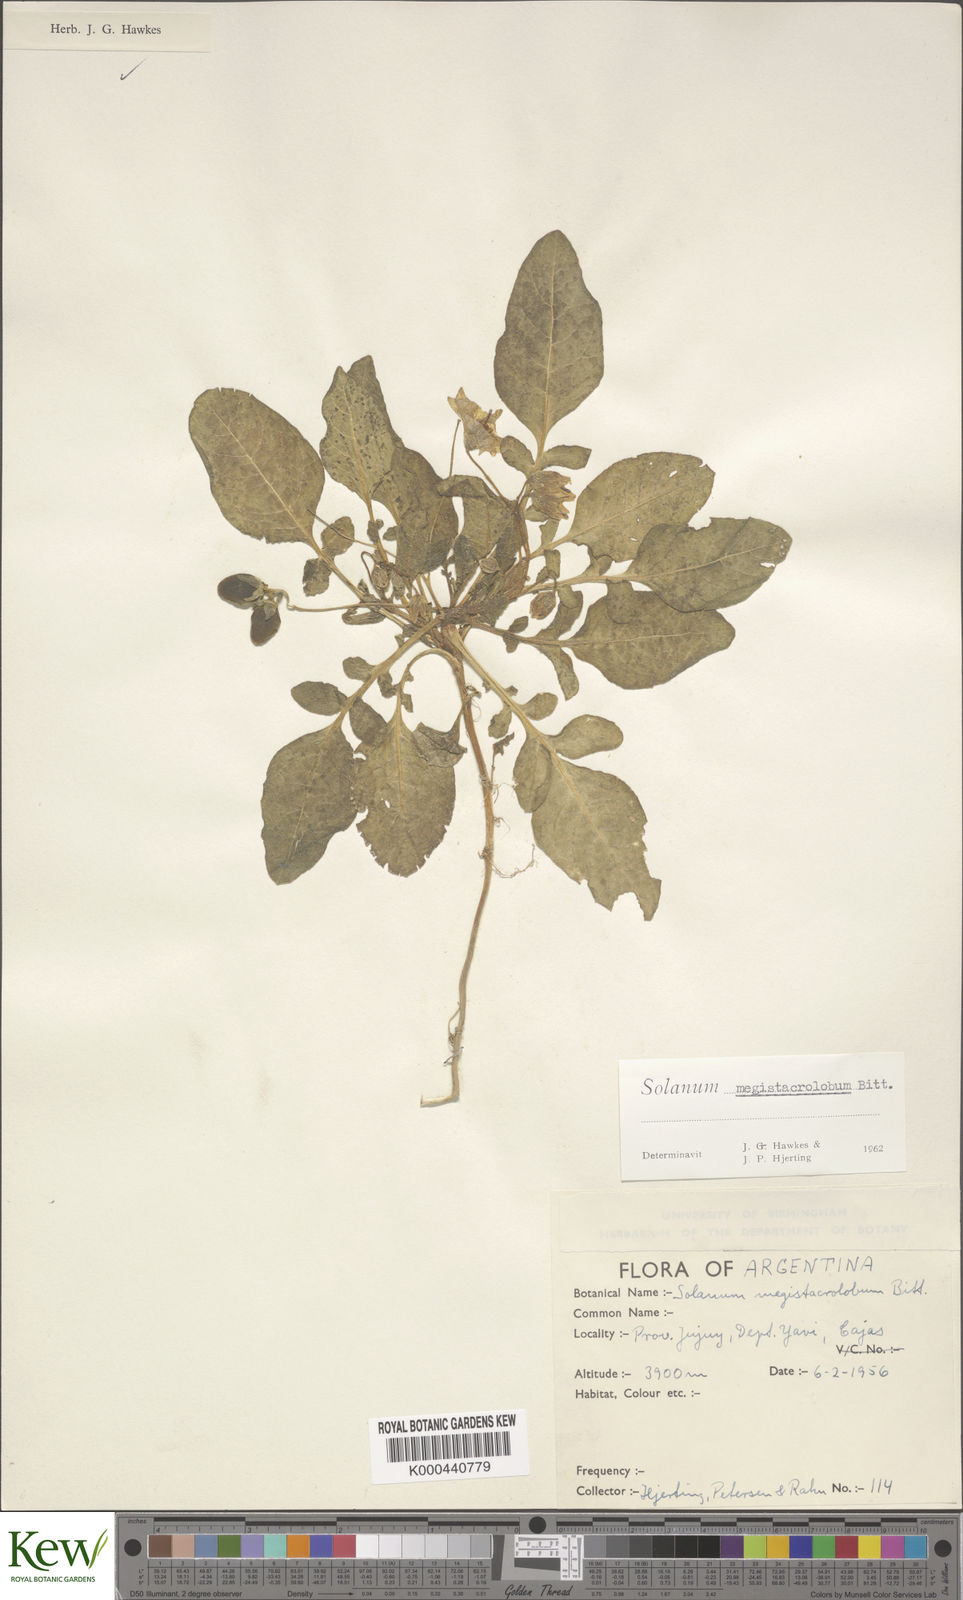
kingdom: Plantae
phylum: Tracheophyta
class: Magnoliopsida
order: Solanales
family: Solanaceae
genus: Solanum
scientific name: Solanum boliviense
